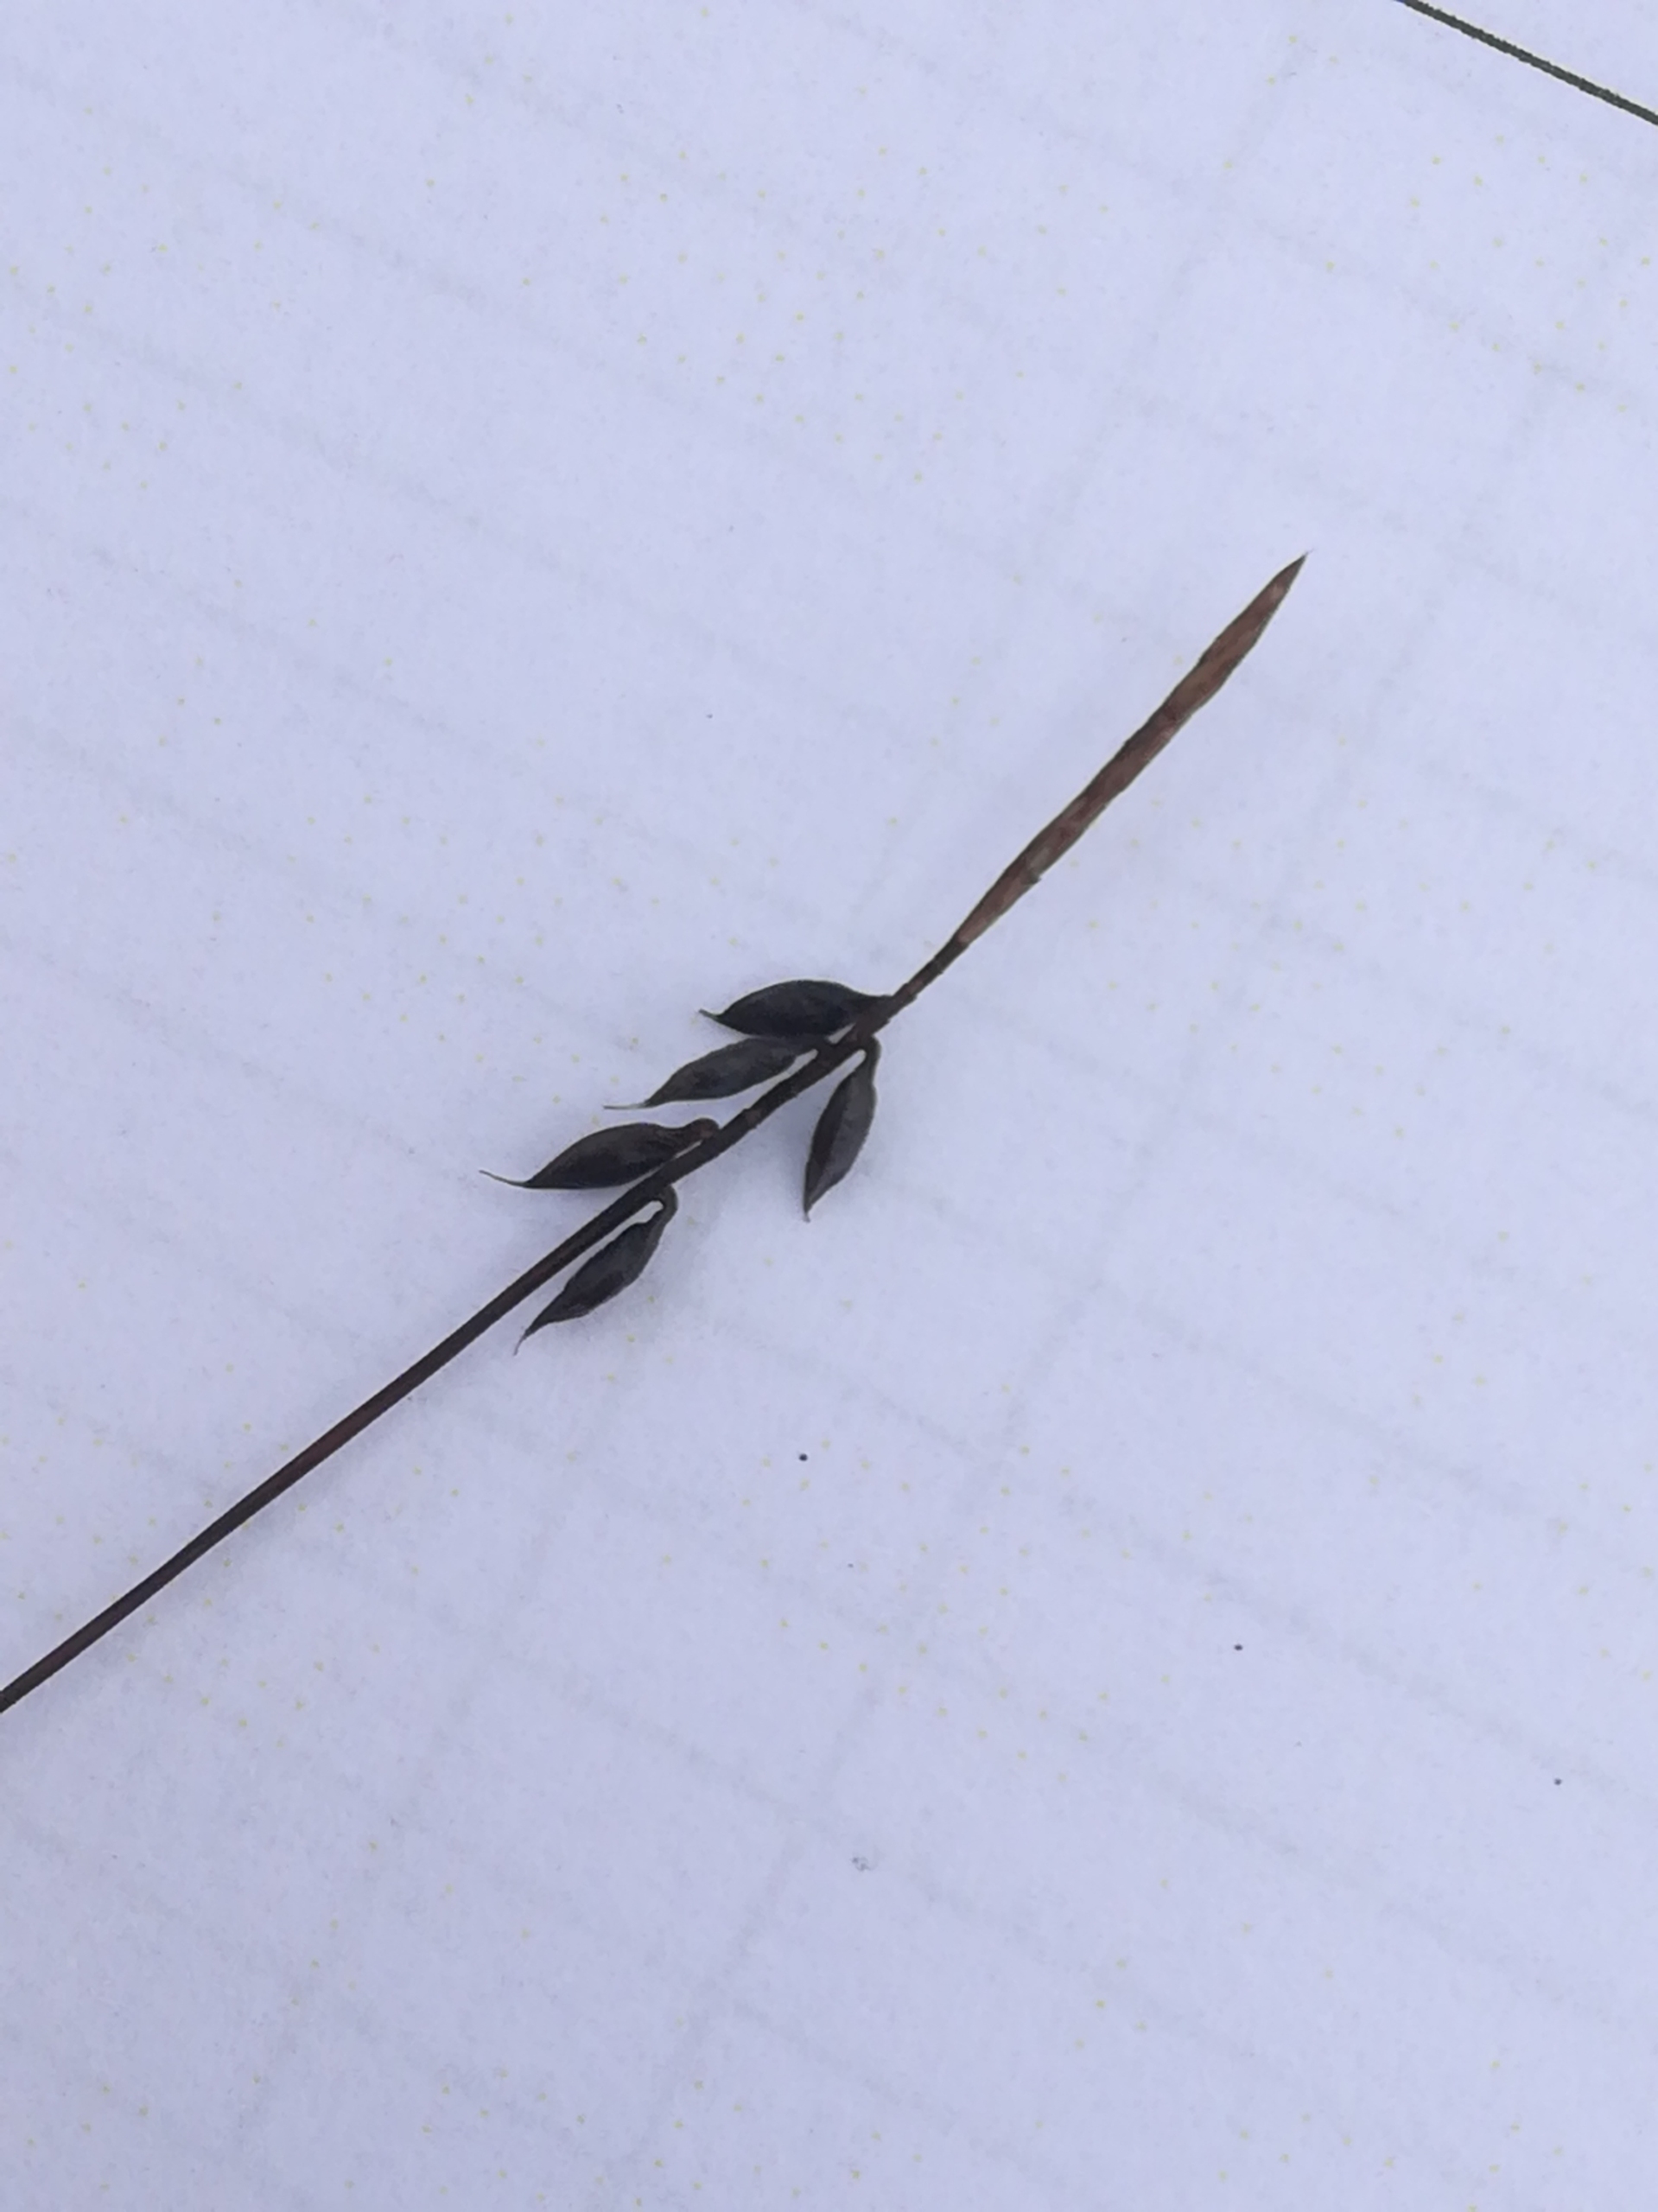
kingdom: Plantae
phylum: Tracheophyta
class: Liliopsida
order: Poales
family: Cyperaceae
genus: Carex
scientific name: Carex pulicaris
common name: Loppe-star
